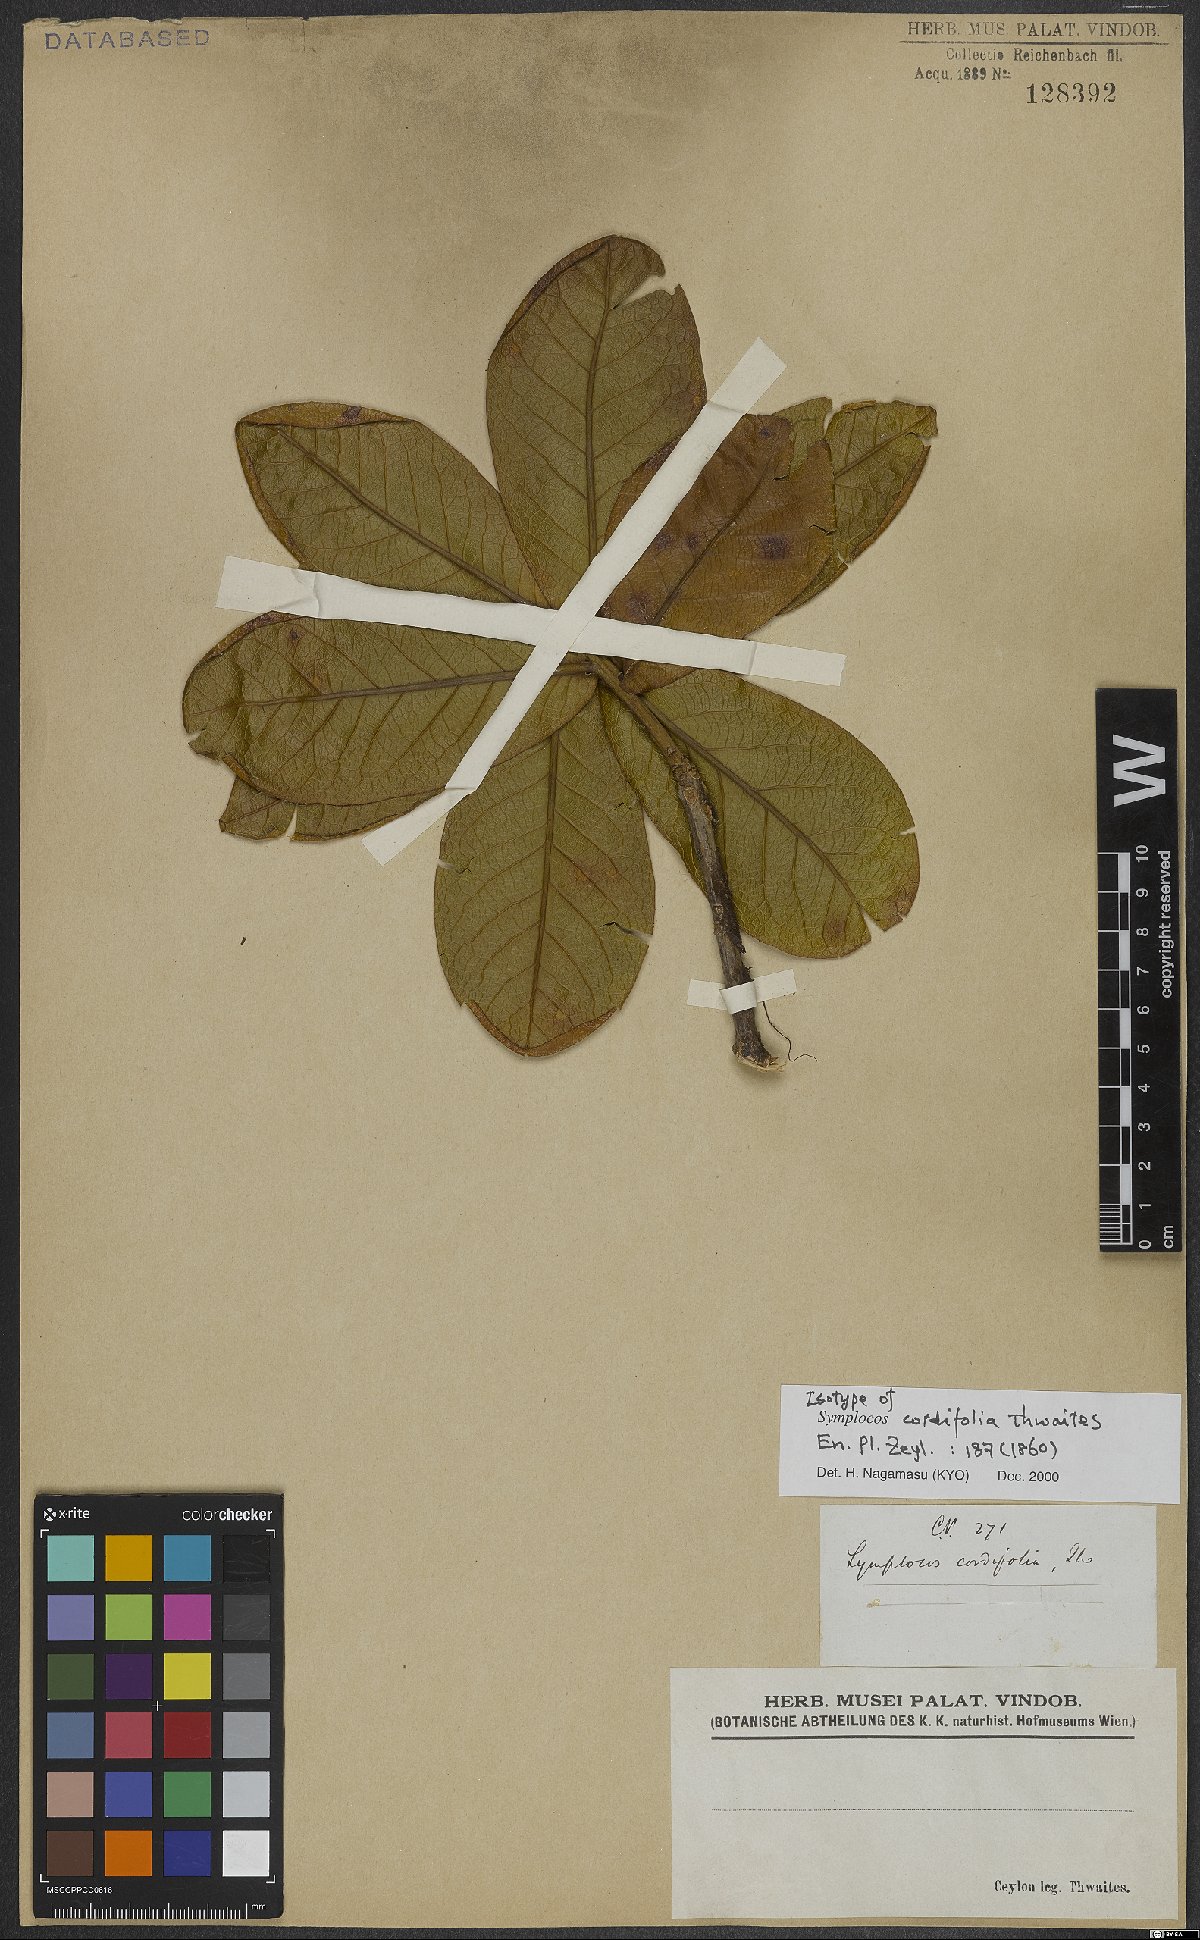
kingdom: Plantae
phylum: Tracheophyta
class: Magnoliopsida
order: Ericales
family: Symplocaceae
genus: Symplocos
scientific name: Symplocos cordifolia
